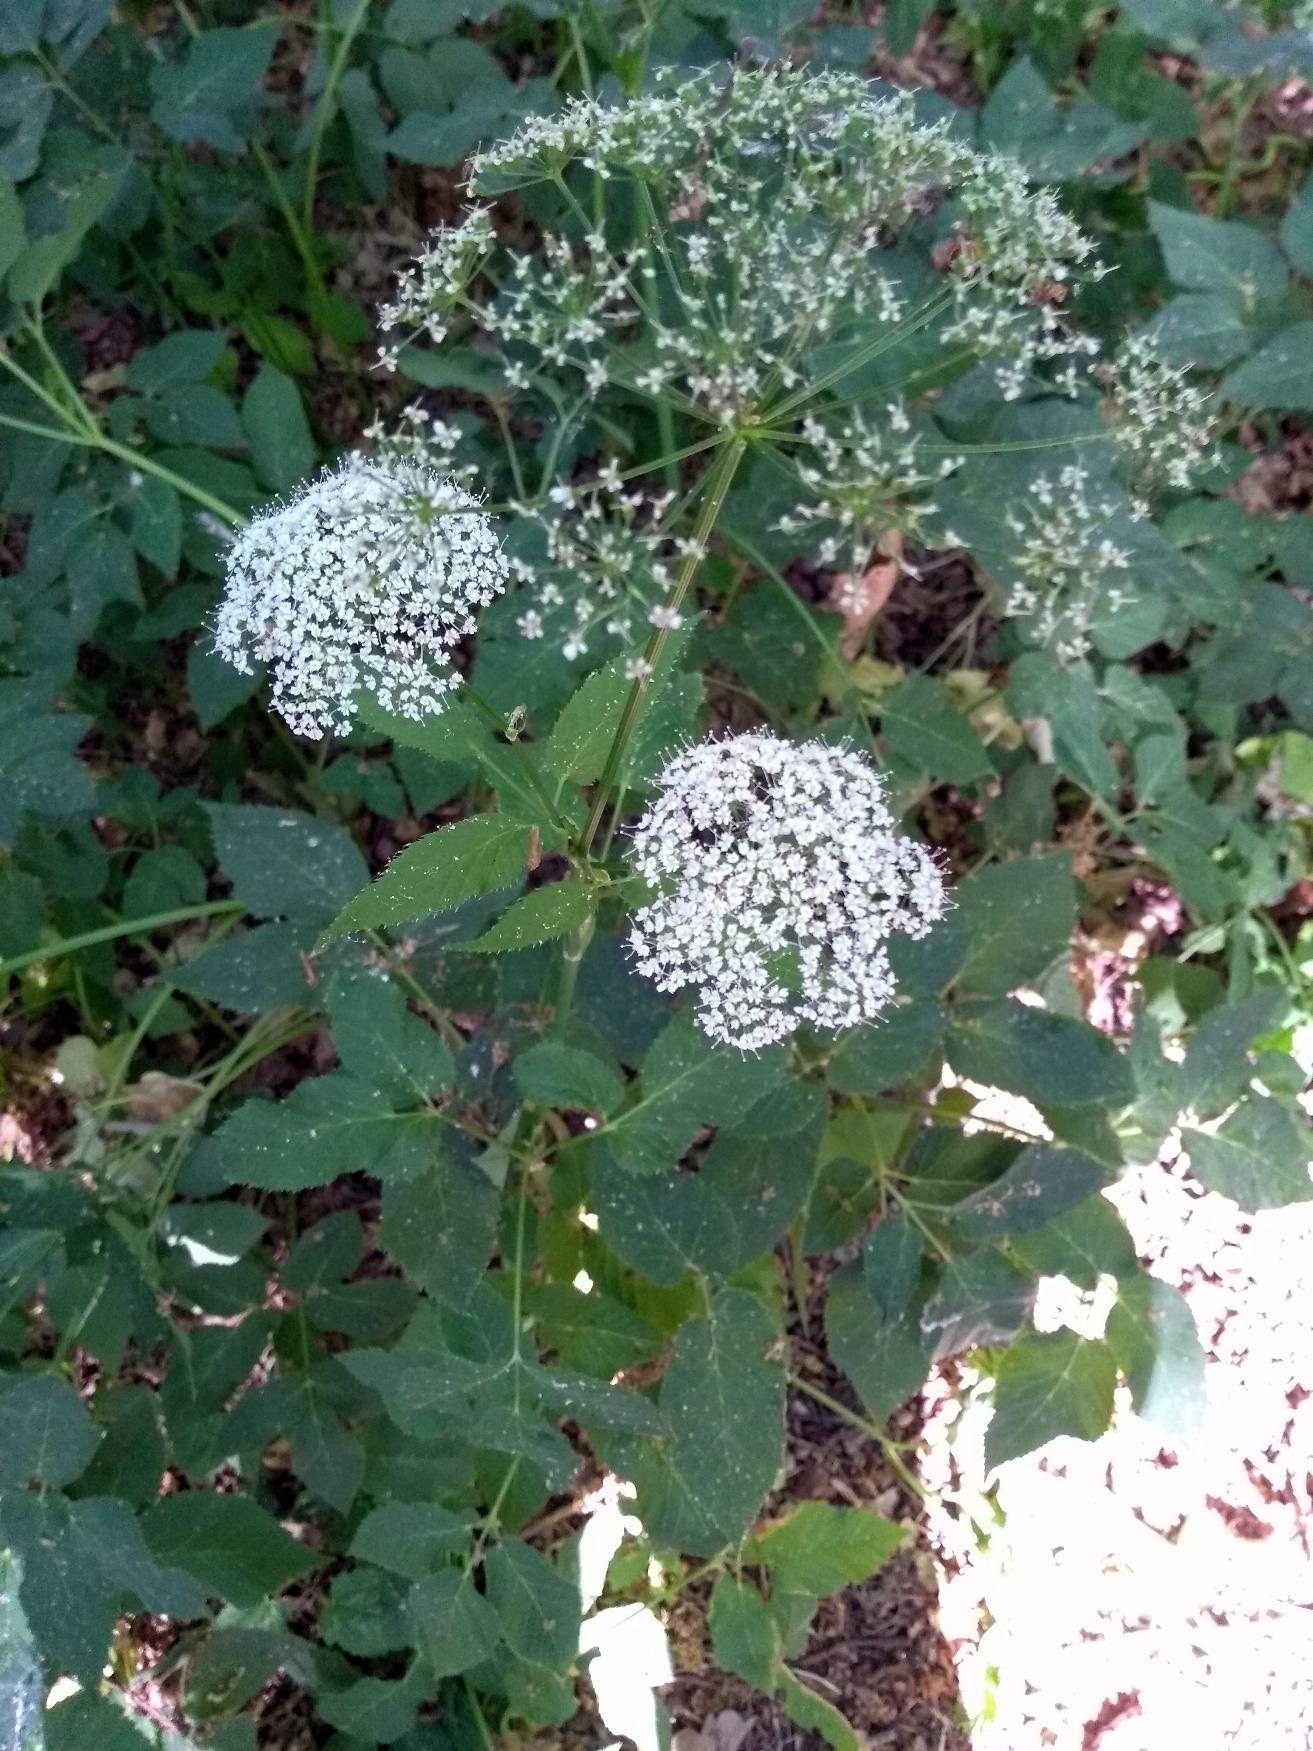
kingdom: Plantae
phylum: Tracheophyta
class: Magnoliopsida
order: Apiales
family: Apiaceae
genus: Aegopodium
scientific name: Aegopodium podagraria
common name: Skvalderkål
